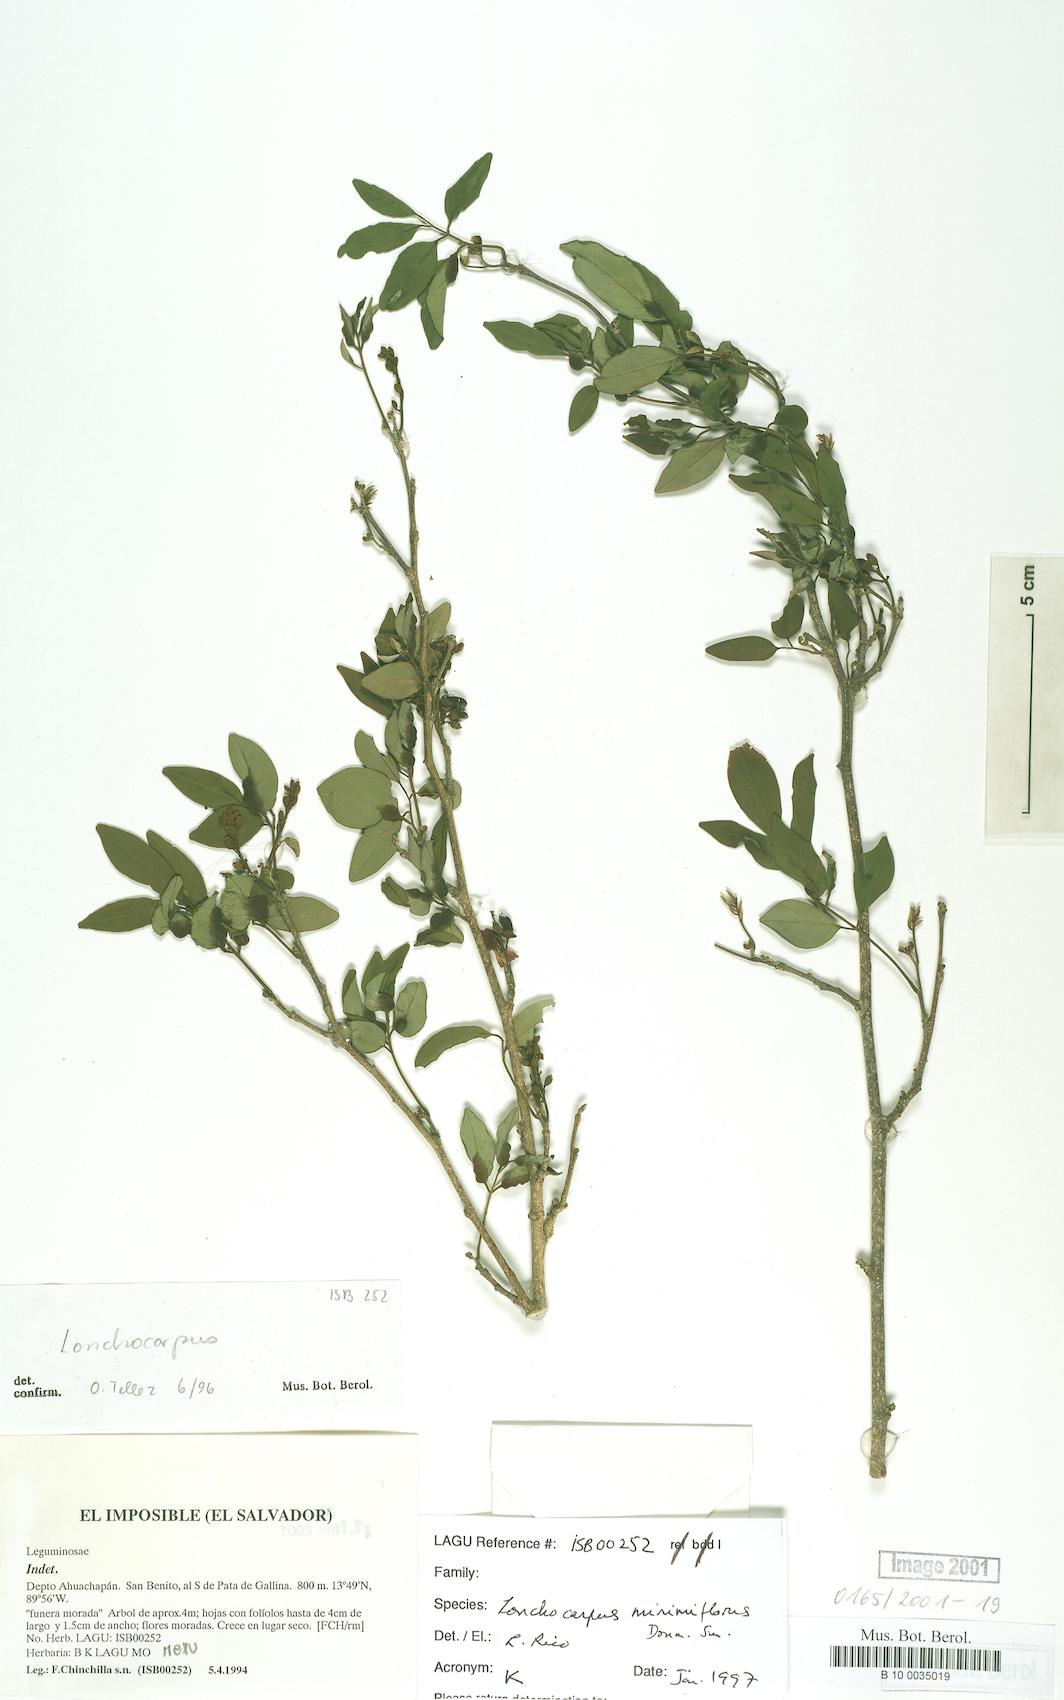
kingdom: Plantae
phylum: Tracheophyta
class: Magnoliopsida
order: Fabales
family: Fabaceae
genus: Dalbergia
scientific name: Dalbergia
